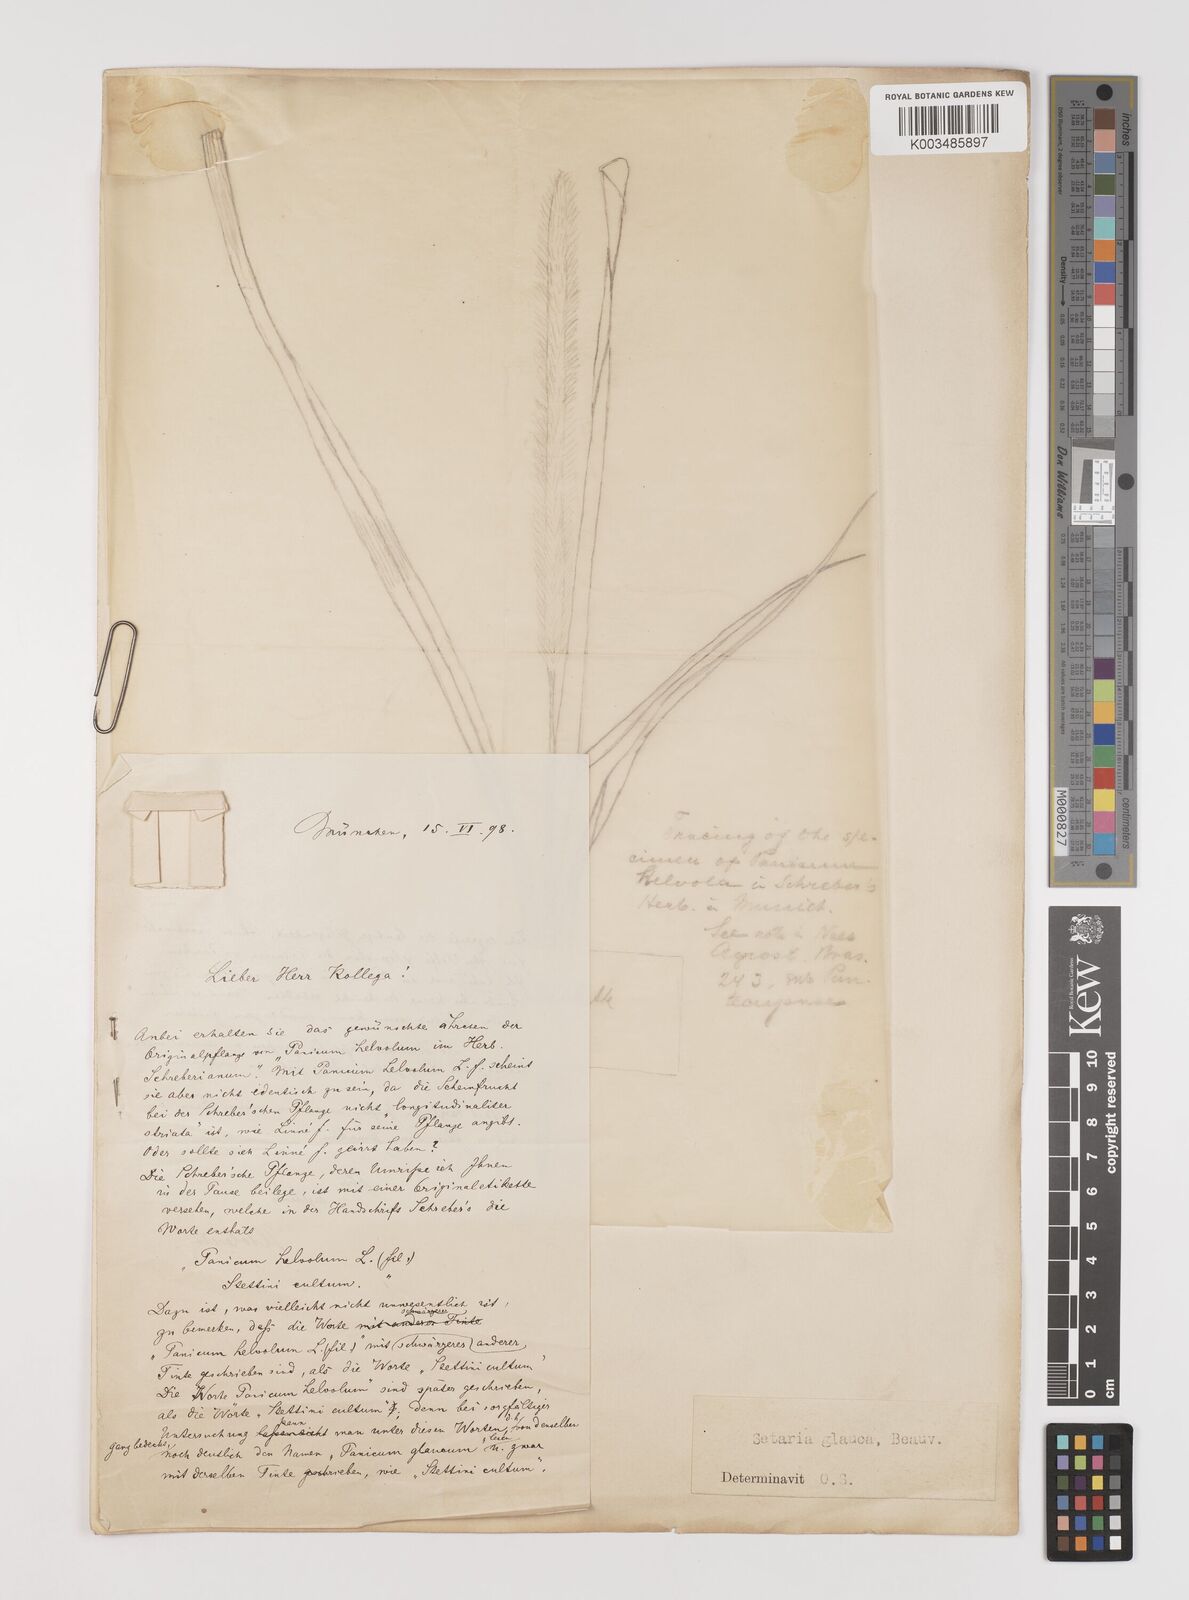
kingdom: Plantae
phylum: Tracheophyta
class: Liliopsida
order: Poales
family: Poaceae
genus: Setaria
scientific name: Setaria pumila
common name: Yellow bristle-grass
